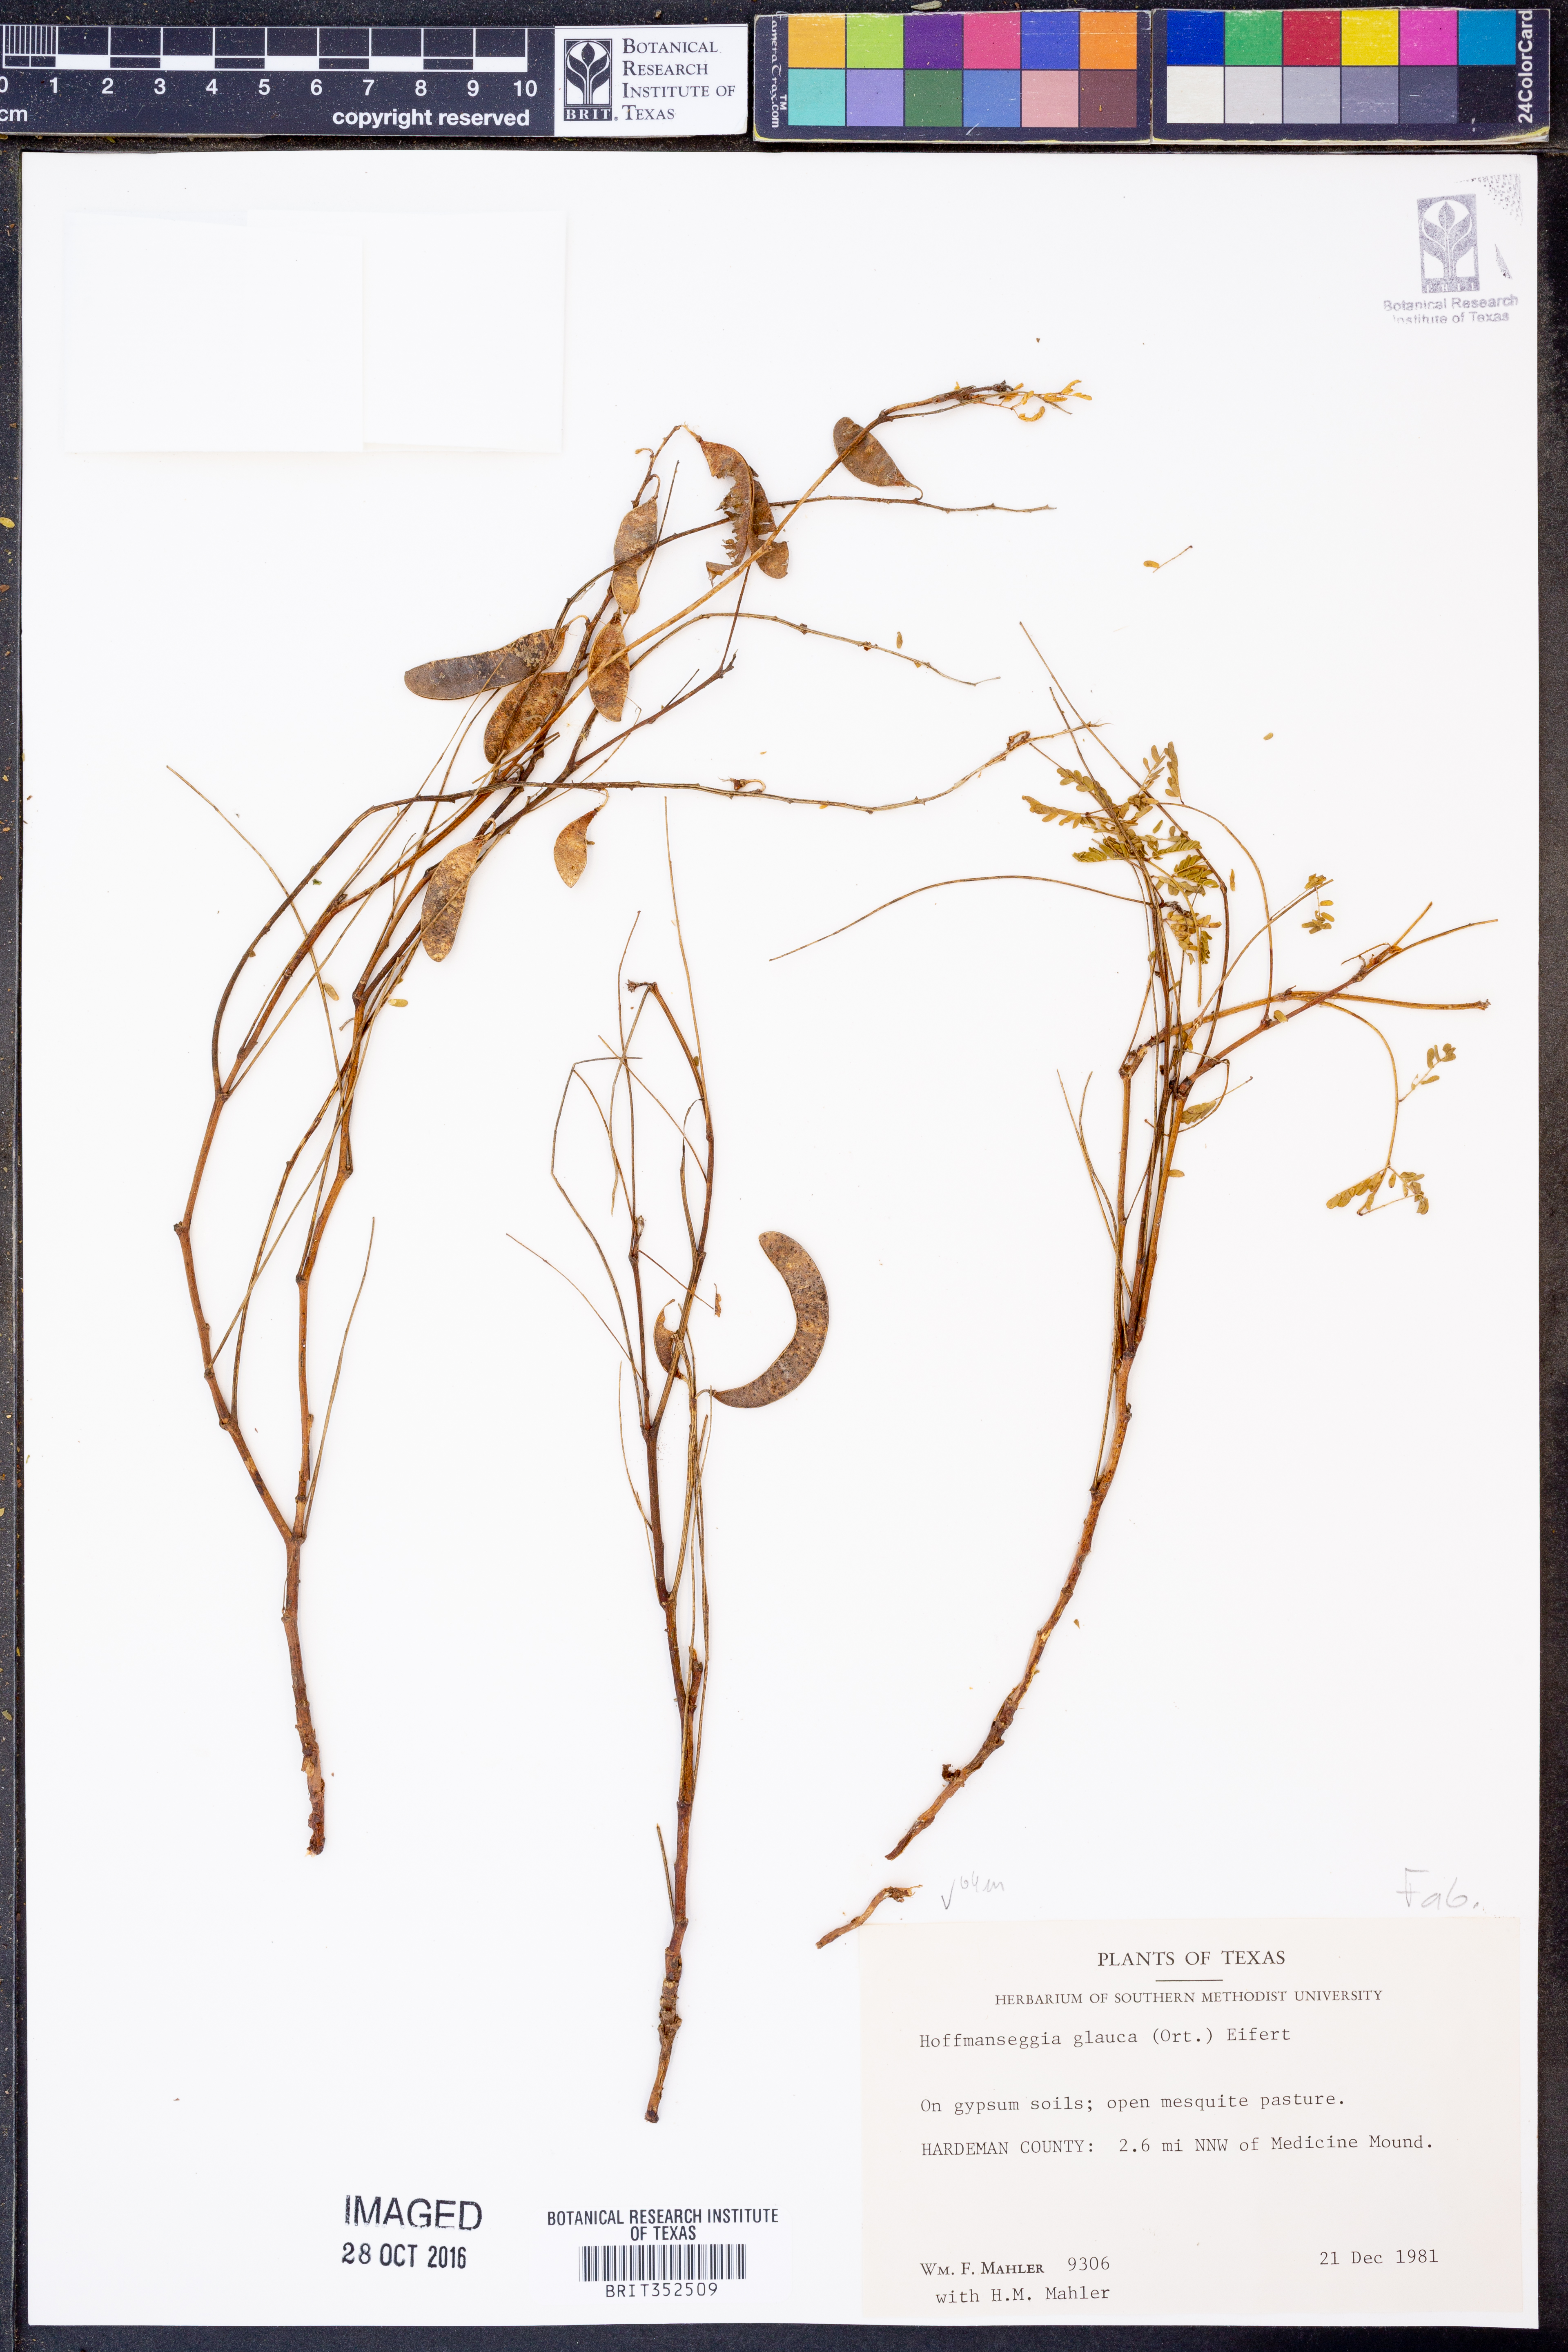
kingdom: Plantae
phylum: Tracheophyta
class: Magnoliopsida
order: Fabales
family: Fabaceae
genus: Hoffmannseggia
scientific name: Hoffmannseggia glauca
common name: Pignut
